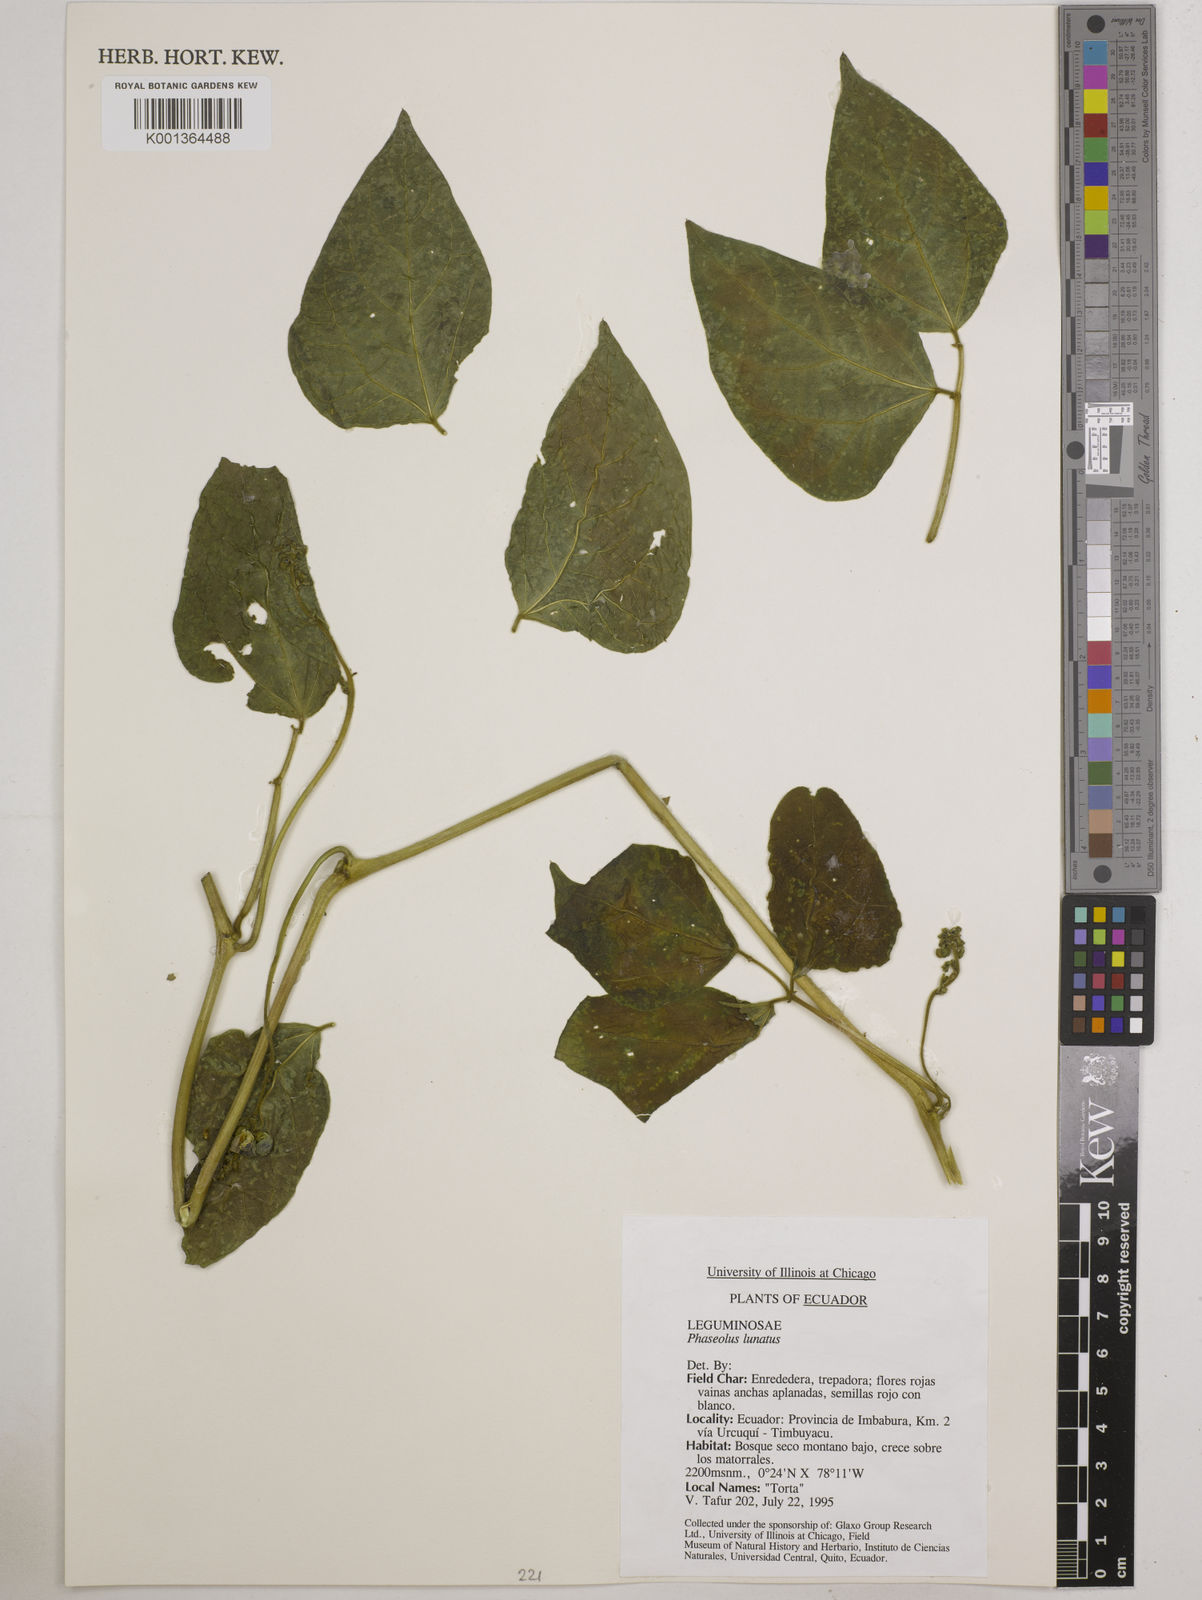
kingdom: Plantae
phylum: Tracheophyta
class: Magnoliopsida
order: Fabales
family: Fabaceae
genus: Phaseolus
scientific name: Phaseolus lunatus
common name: Sieva bean
